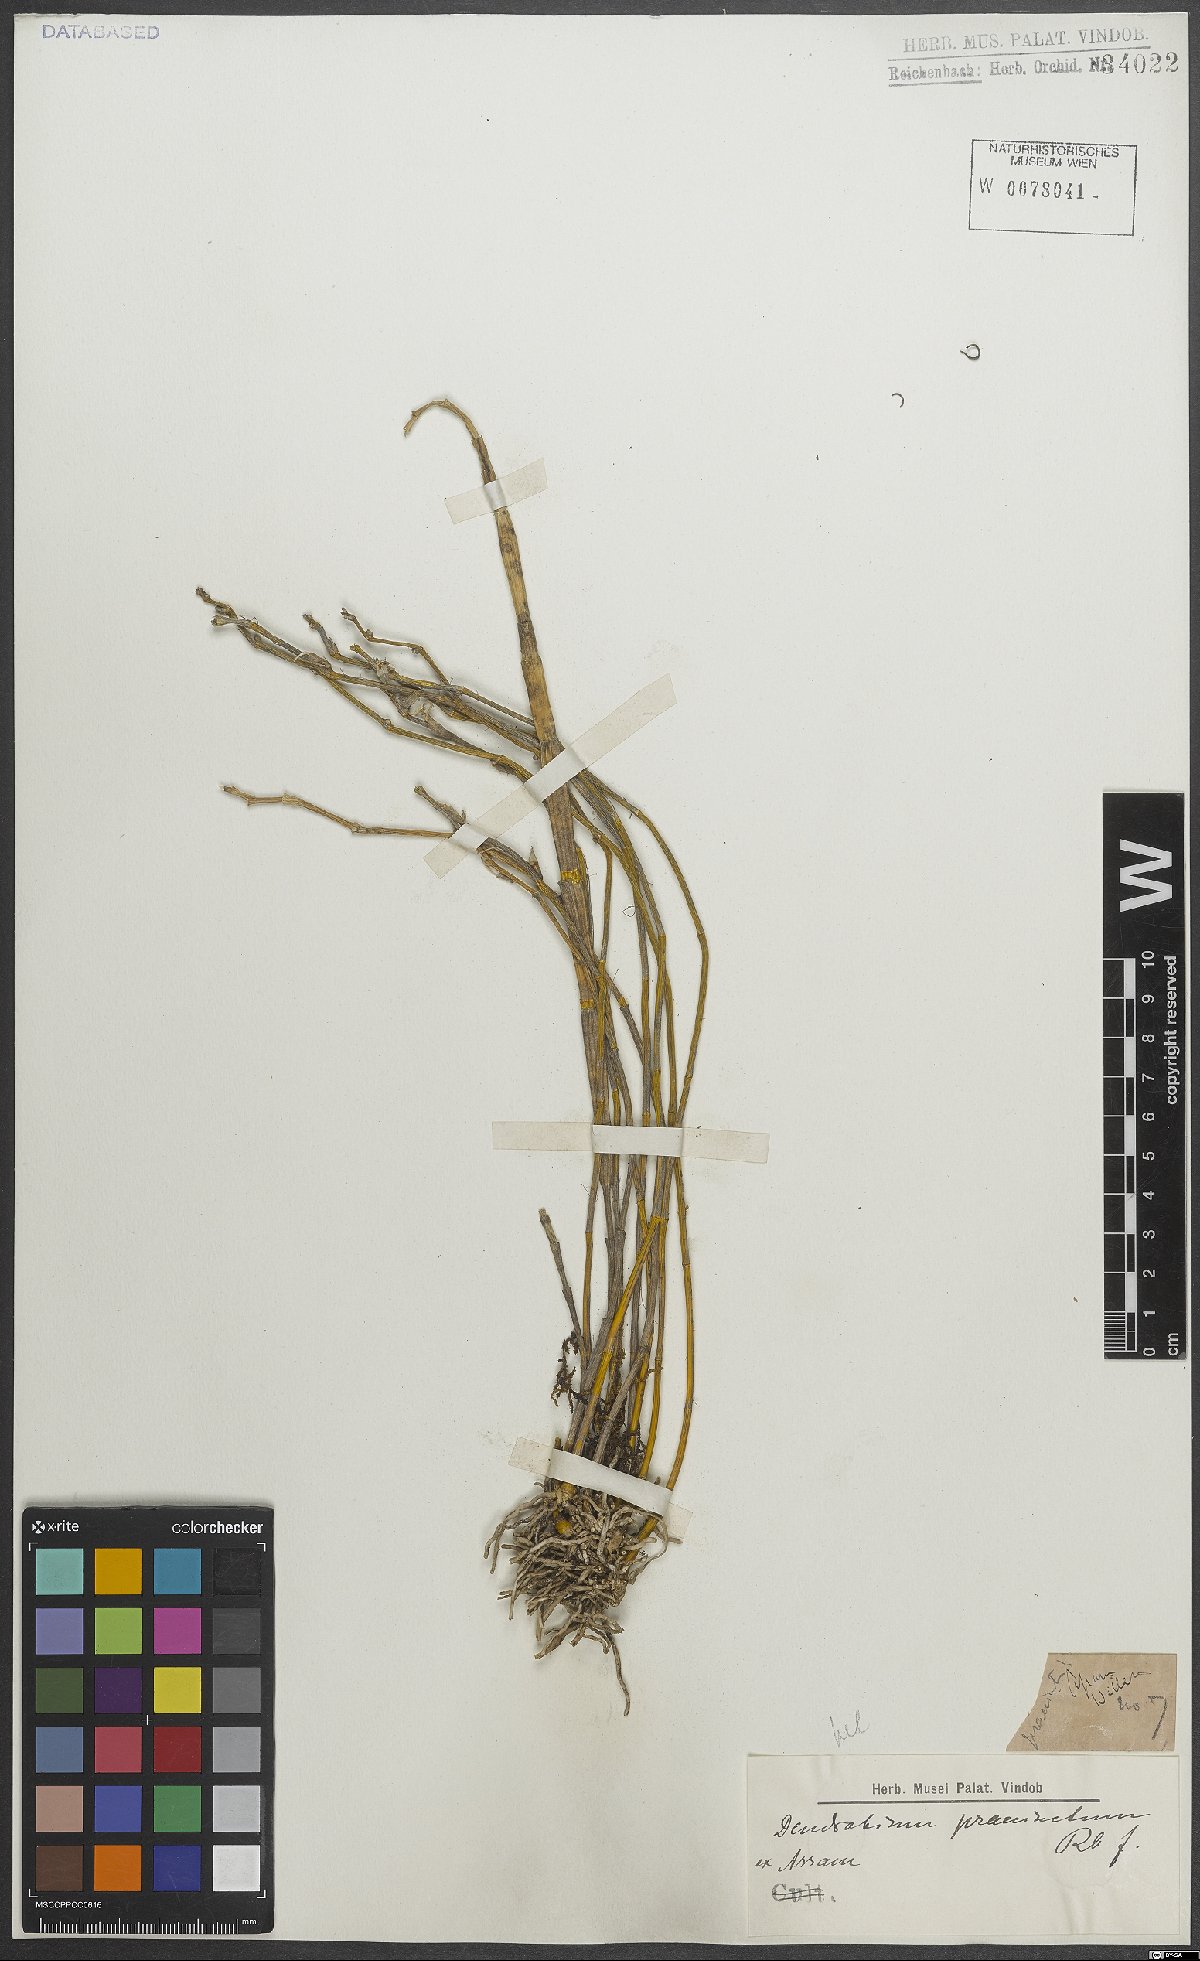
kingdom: Plantae
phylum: Tracheophyta
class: Liliopsida
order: Asparagales
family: Orchidaceae
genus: Dendrobium
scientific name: Dendrobium praecinctum
